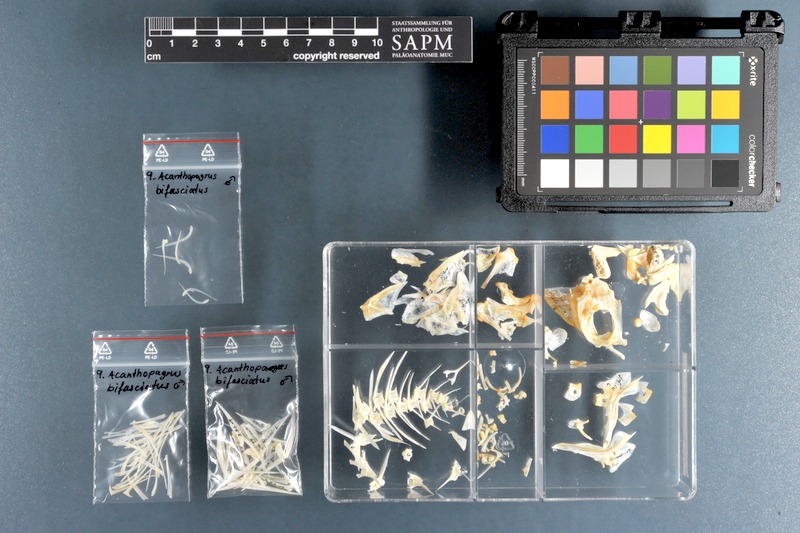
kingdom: Animalia
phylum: Chordata
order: Perciformes
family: Sparidae
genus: Acanthopagrus
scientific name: Acanthopagrus bifasciatus
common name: Twobar seabream
